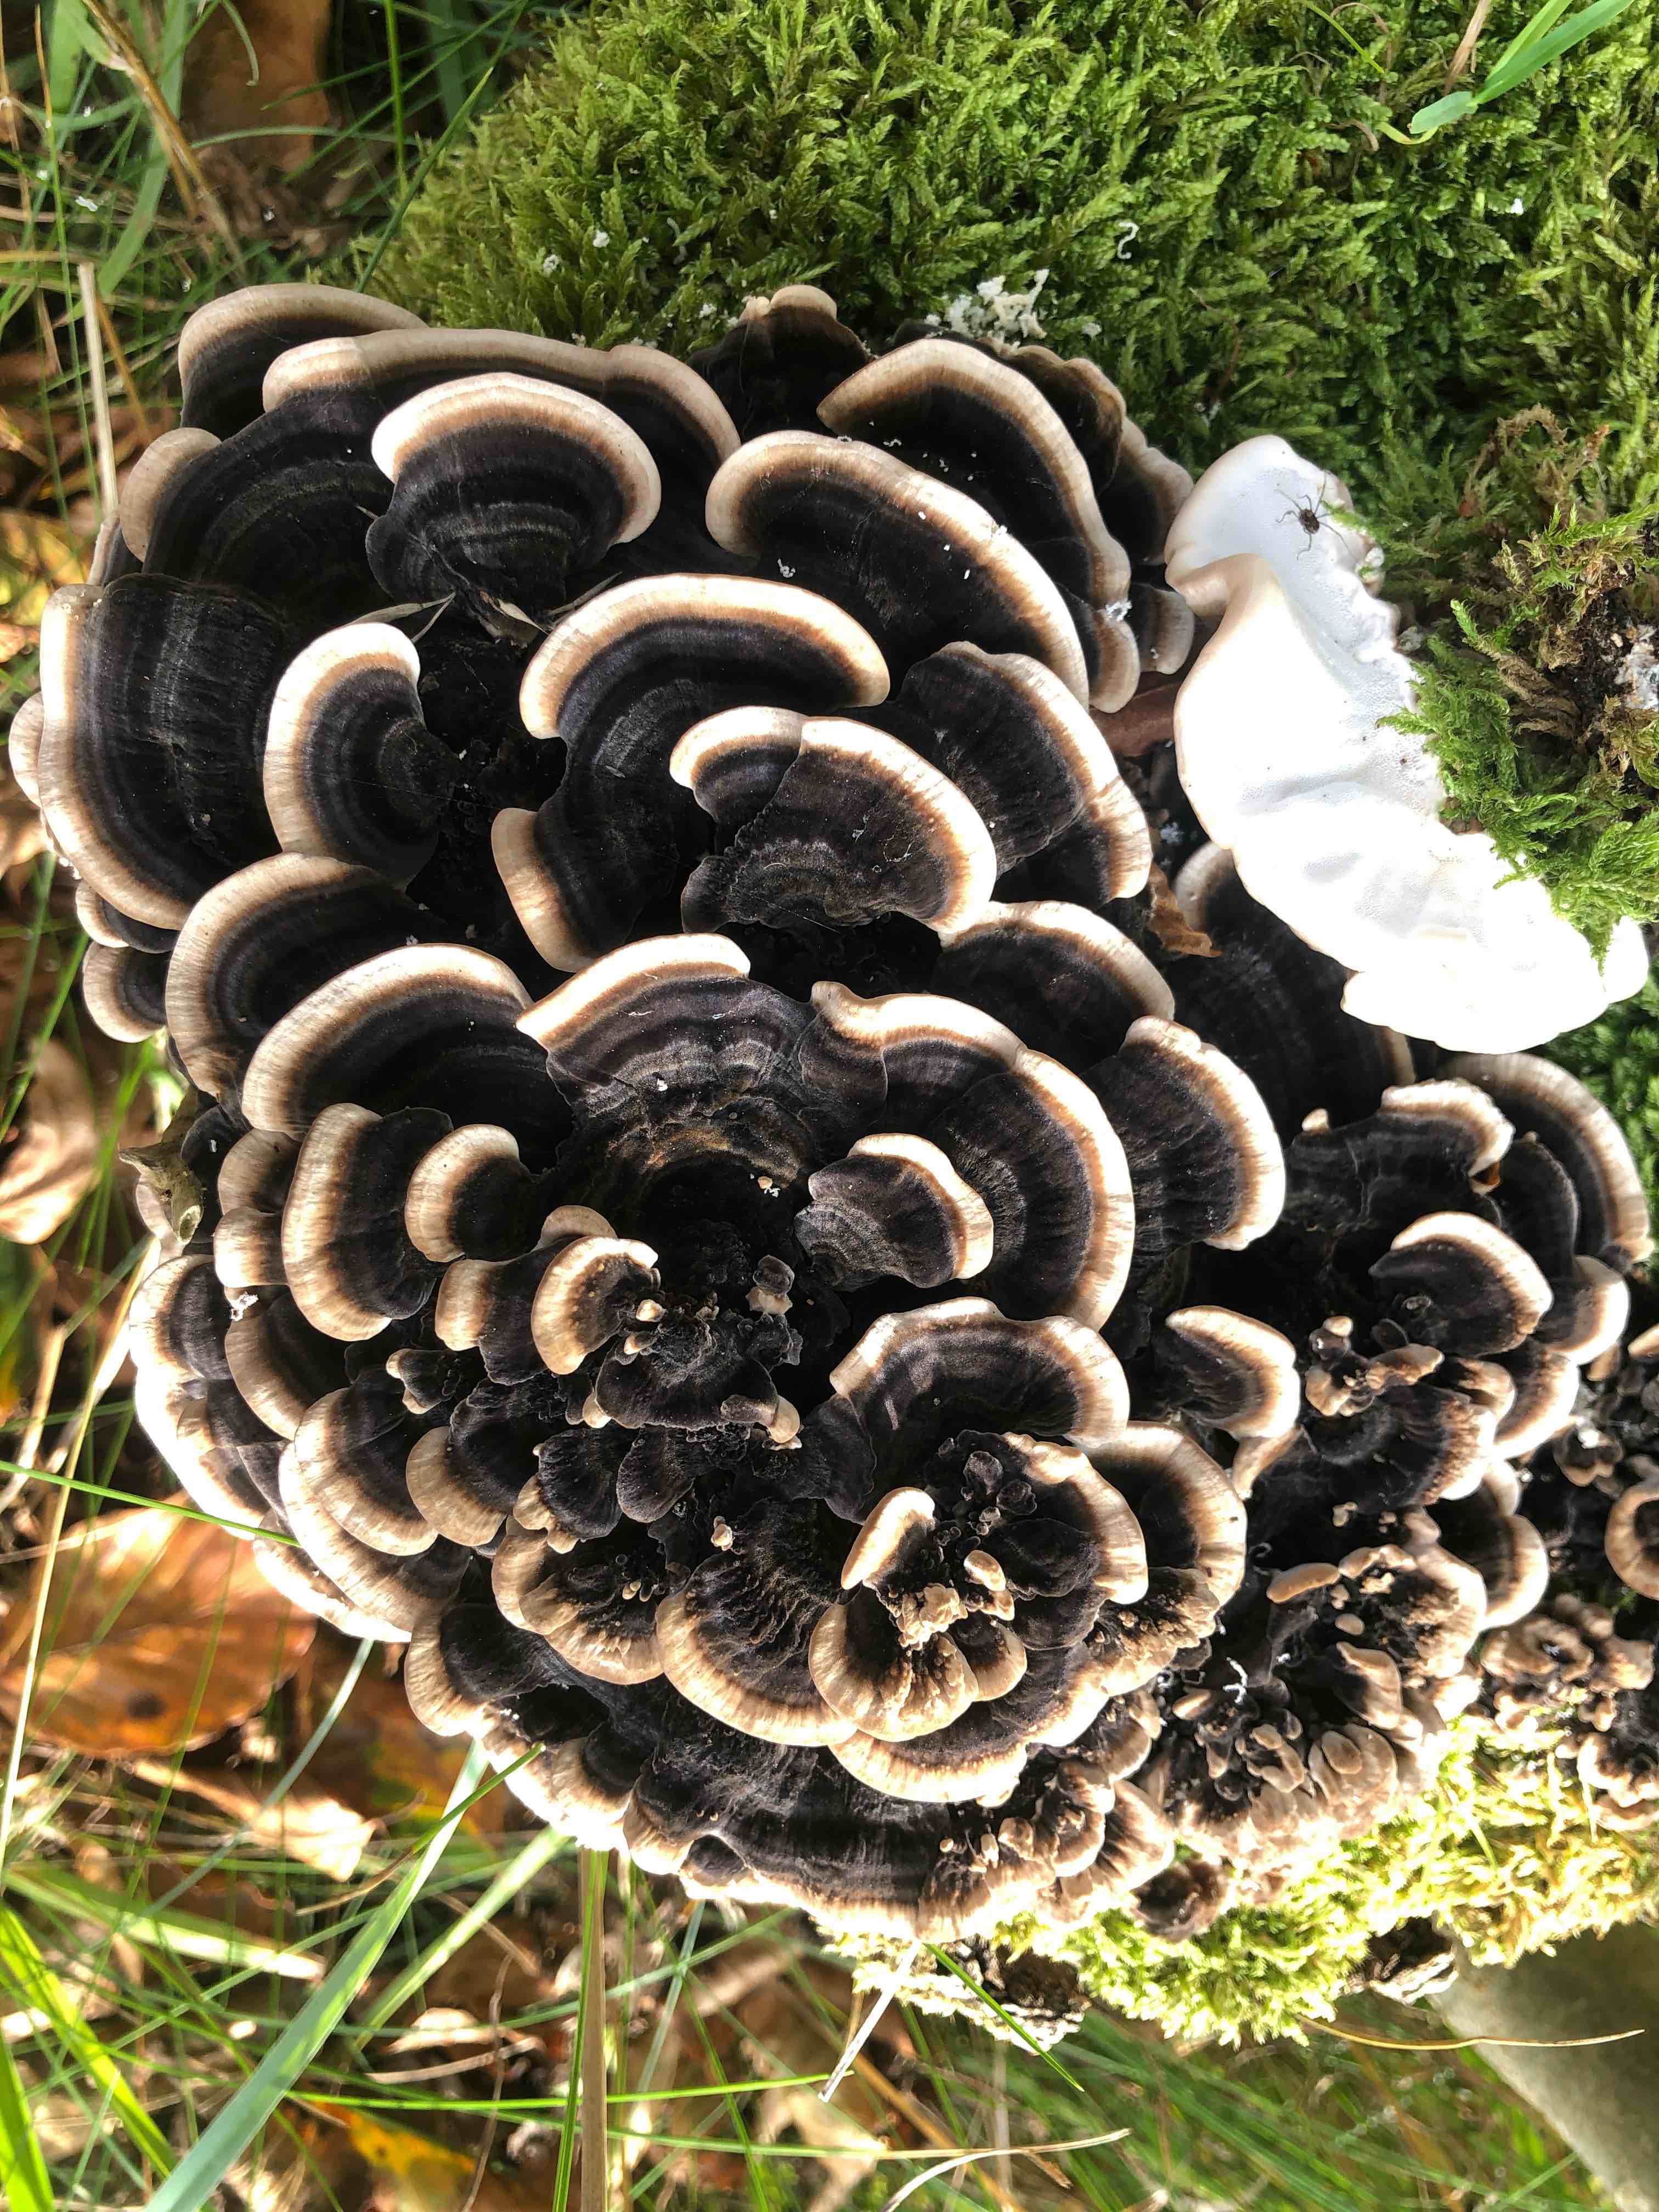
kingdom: Fungi
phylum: Basidiomycota
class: Agaricomycetes
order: Polyporales
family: Polyporaceae
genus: Trametes
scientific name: Trametes versicolor
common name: broget læderporesvamp
